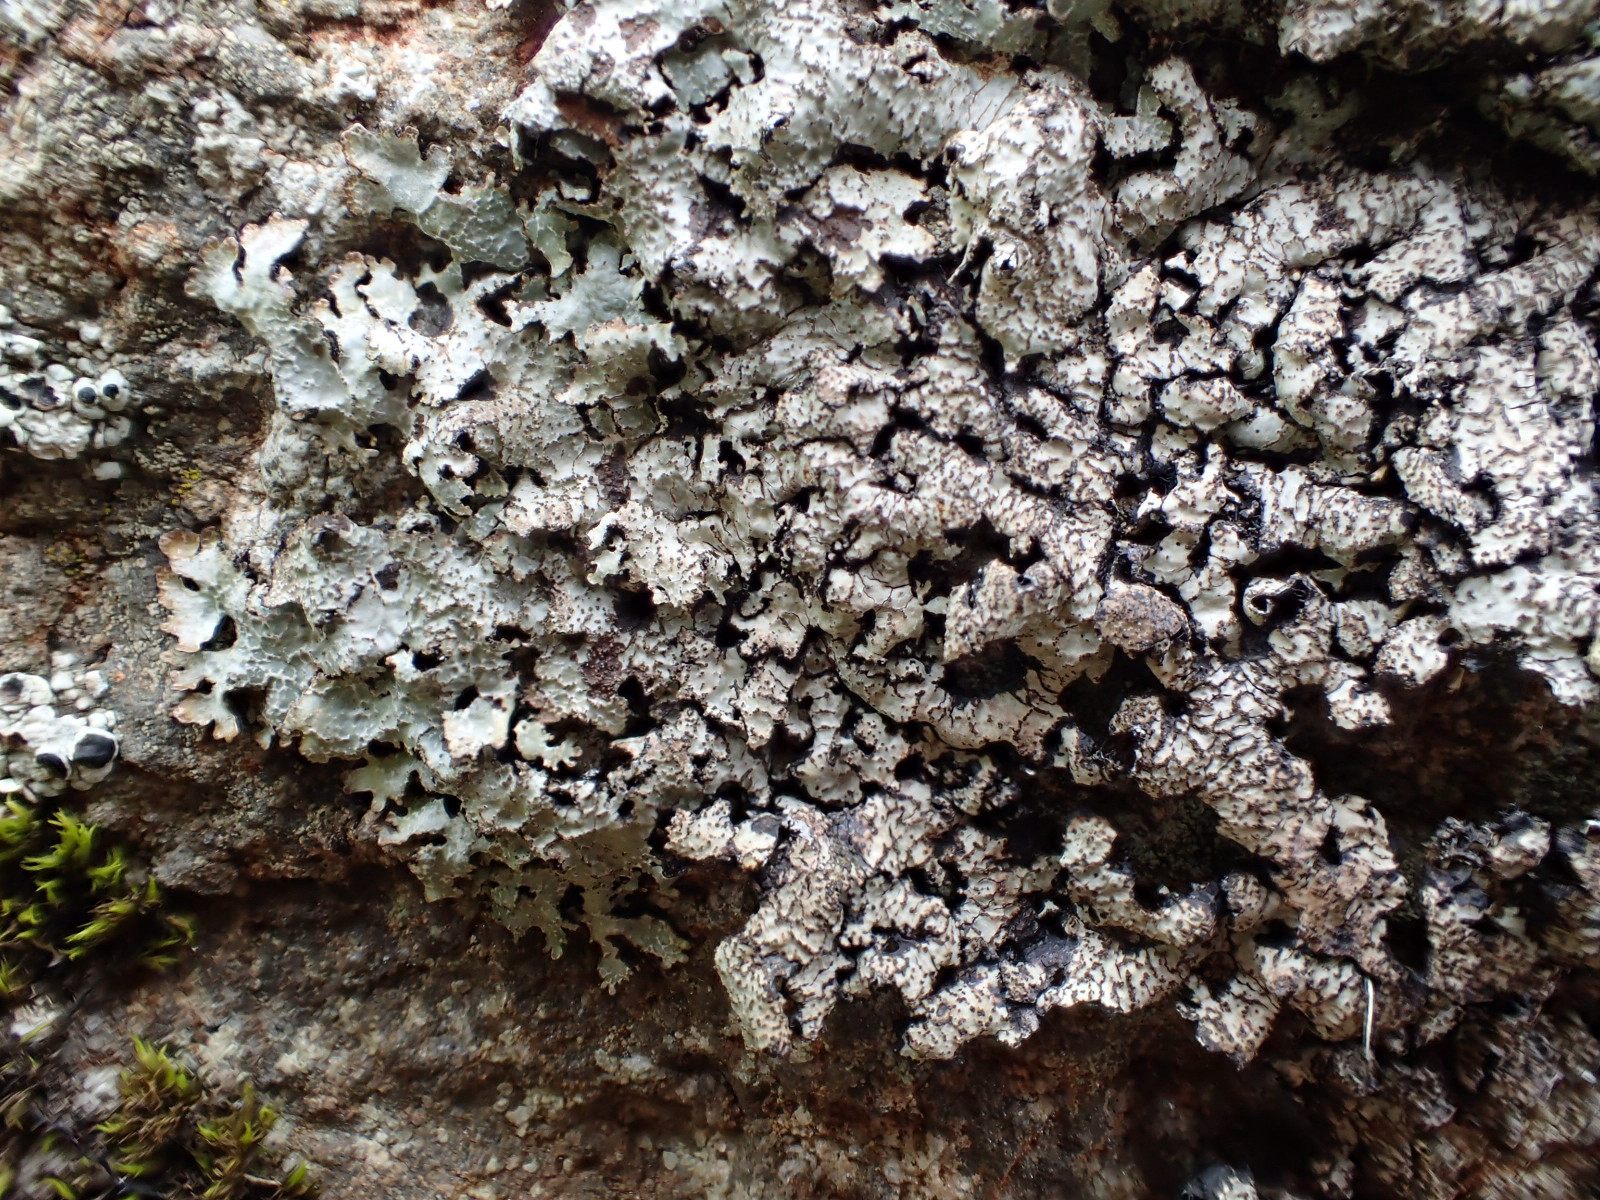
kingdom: Fungi
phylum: Ascomycota
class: Lecanoromycetes
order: Lecanorales
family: Parmeliaceae
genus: Parmelia
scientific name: Parmelia saxatilis
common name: farve-skållav
